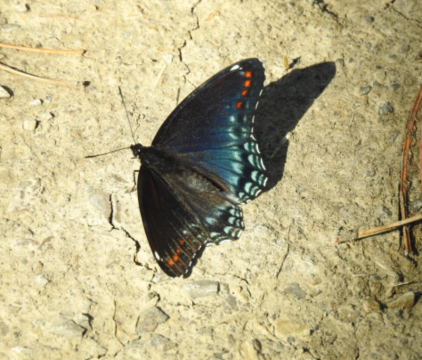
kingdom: Animalia
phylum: Arthropoda
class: Insecta
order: Lepidoptera
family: Nymphalidae
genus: Limenitis
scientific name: Limenitis arthemis
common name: Red-spotted Admiral
